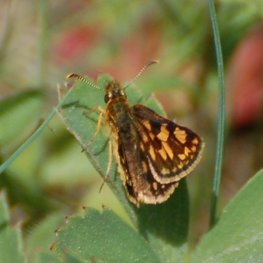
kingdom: Animalia
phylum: Arthropoda
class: Insecta
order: Lepidoptera
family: Hesperiidae
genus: Carterocephalus
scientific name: Carterocephalus palaemon
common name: Chequered Skipper
